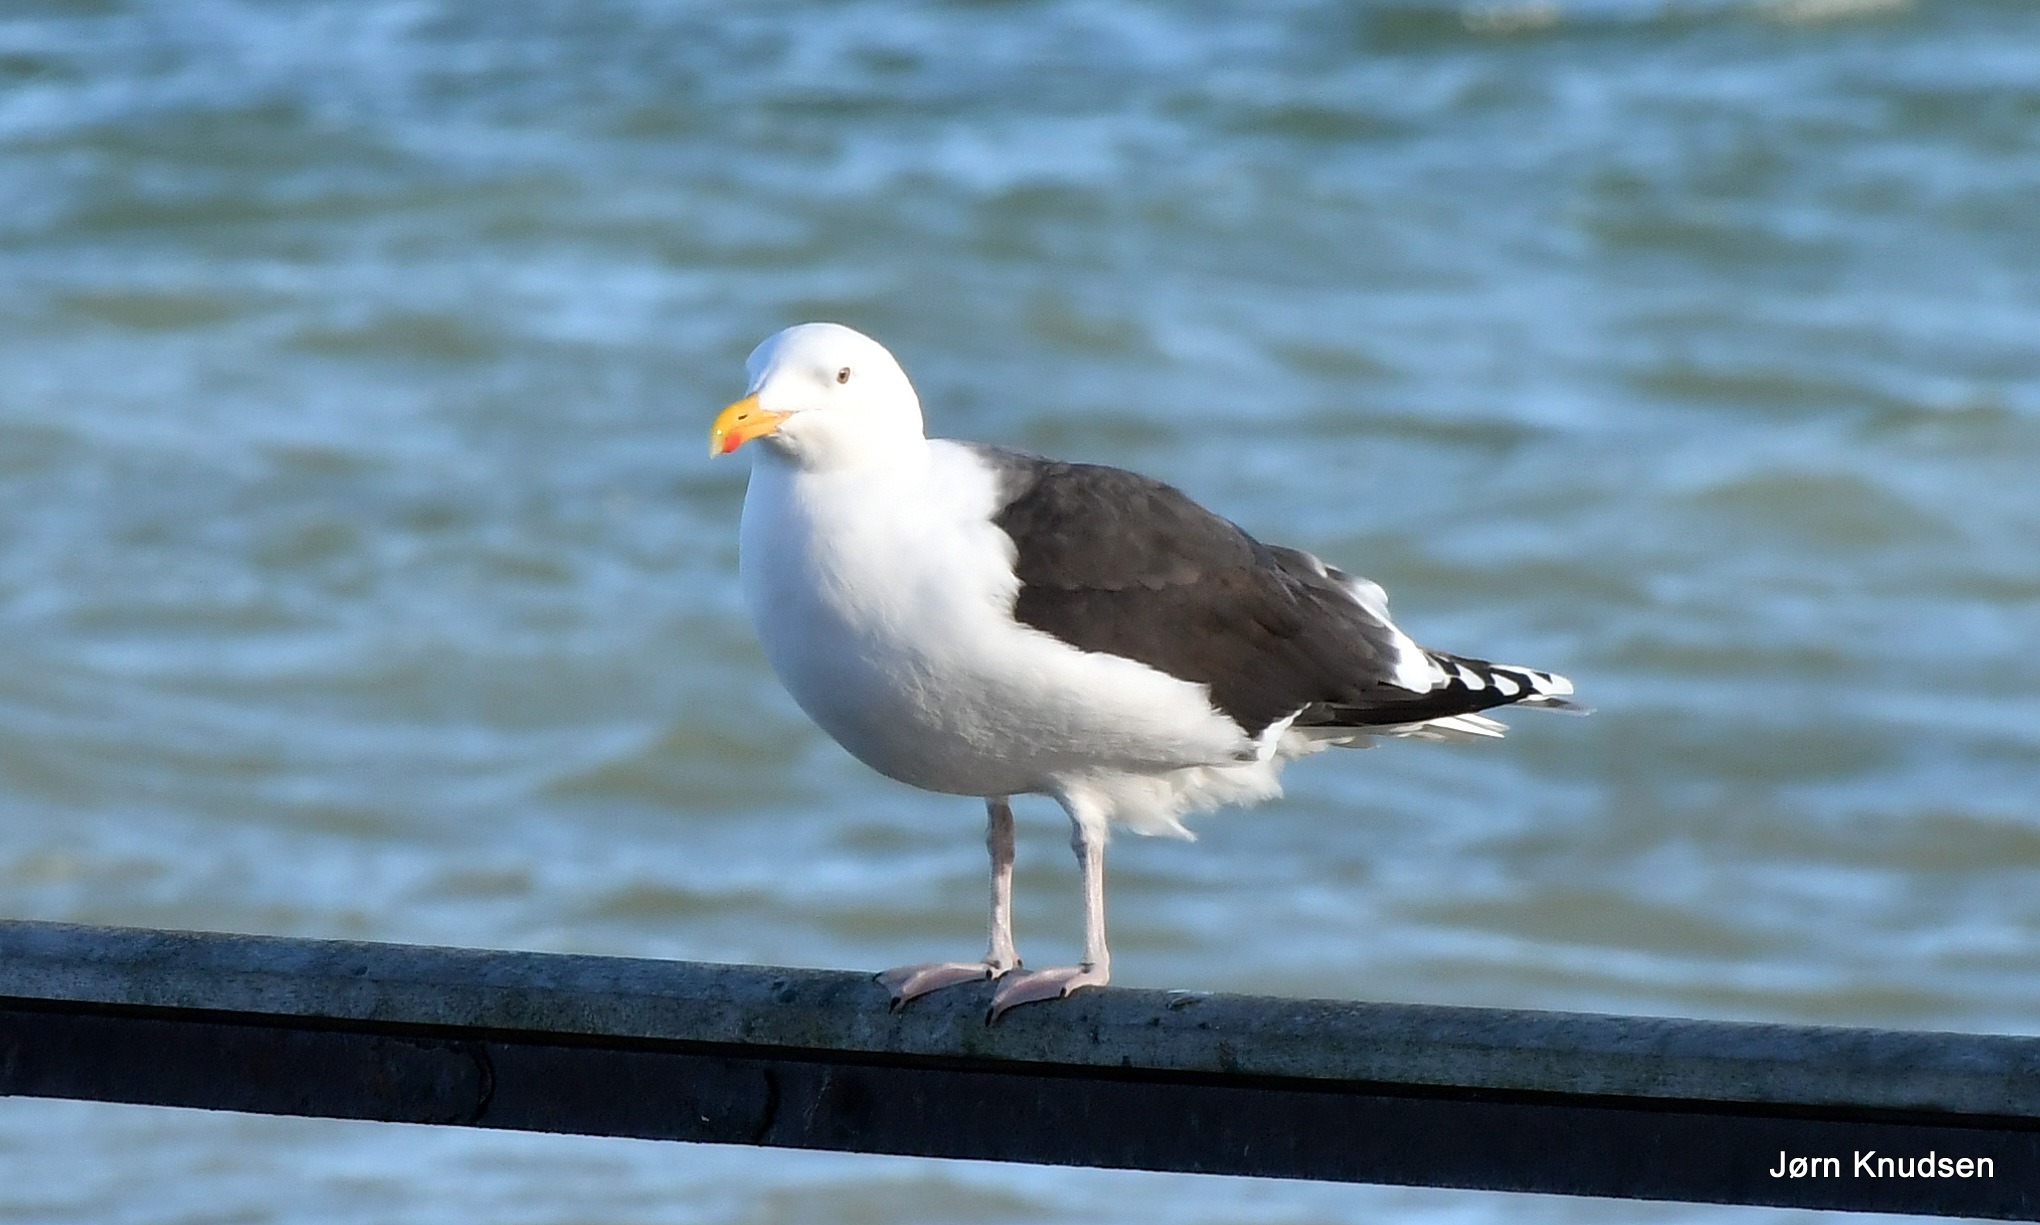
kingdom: Animalia
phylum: Chordata
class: Aves
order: Charadriiformes
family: Laridae
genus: Larus
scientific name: Larus marinus
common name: Svartbag
